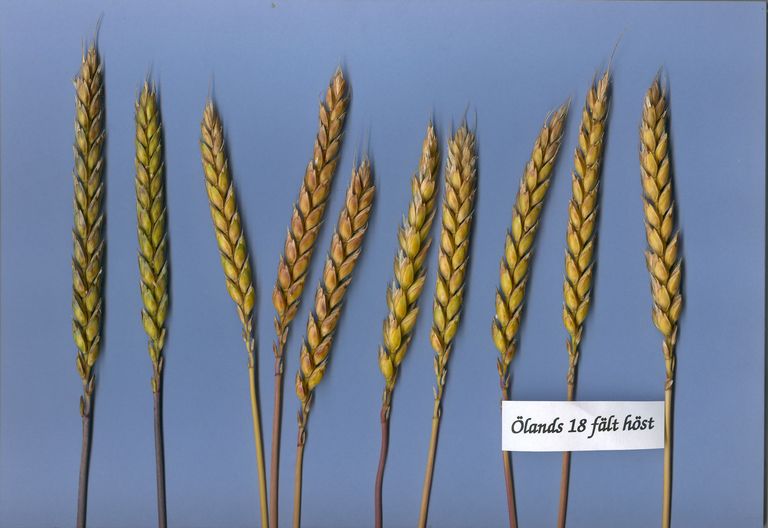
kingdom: Plantae
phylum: Tracheophyta
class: Liliopsida
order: Poales
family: Poaceae
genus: Triticum
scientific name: Triticum aestivum
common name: Common wheat
